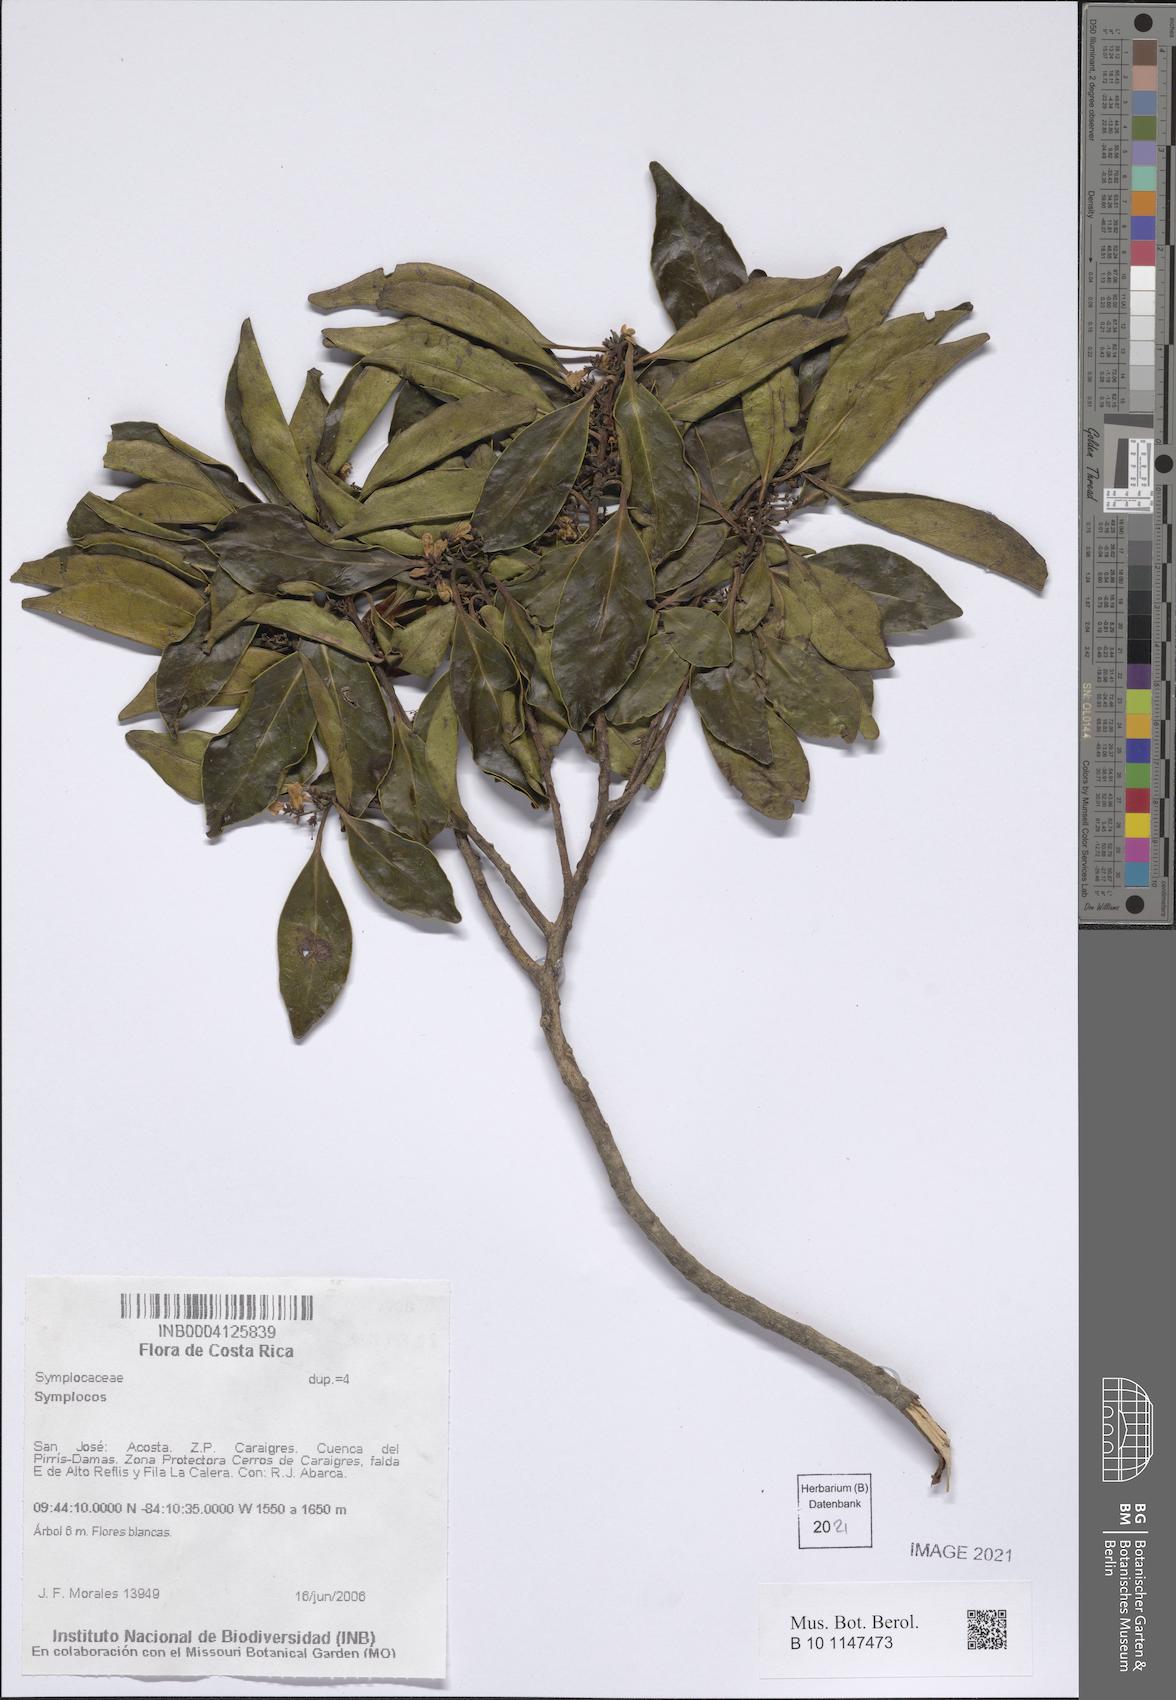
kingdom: Plantae
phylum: Tracheophyta
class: Magnoliopsida
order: Ericales
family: Symplocaceae
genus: Symplocos
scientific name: Symplocos
